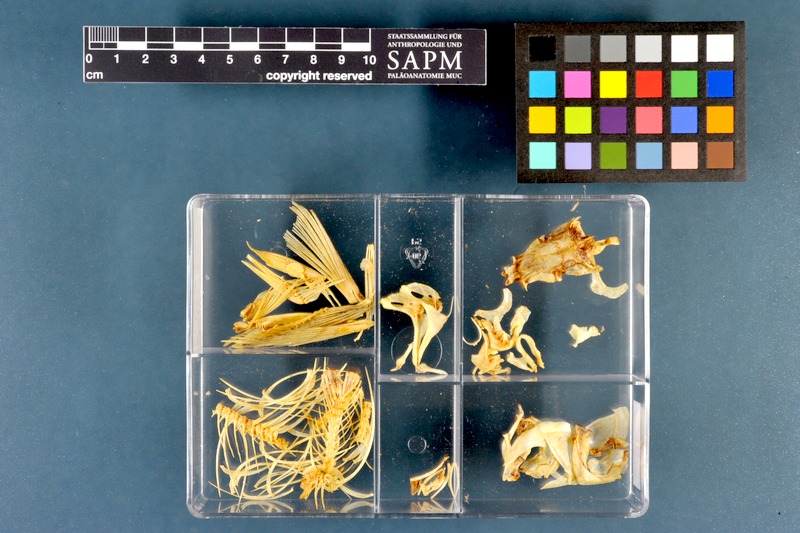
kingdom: Animalia
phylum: Chordata
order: Cypriniformes
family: Cyprinidae
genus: Rutilus
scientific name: Rutilus rutilus
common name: Roach
